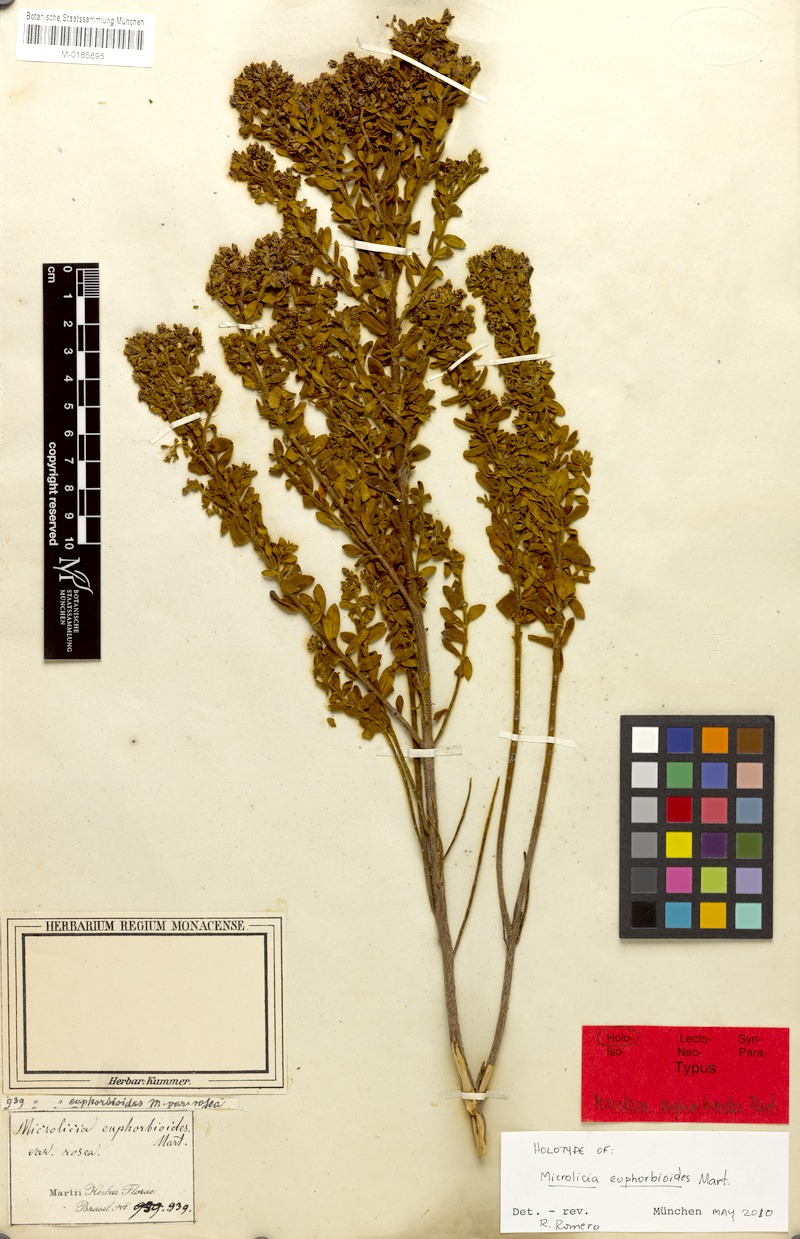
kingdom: Plantae
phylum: Tracheophyta
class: Magnoliopsida
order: Myrtales
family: Melastomataceae
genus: Microlicia
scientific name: Microlicia euphorbioides
